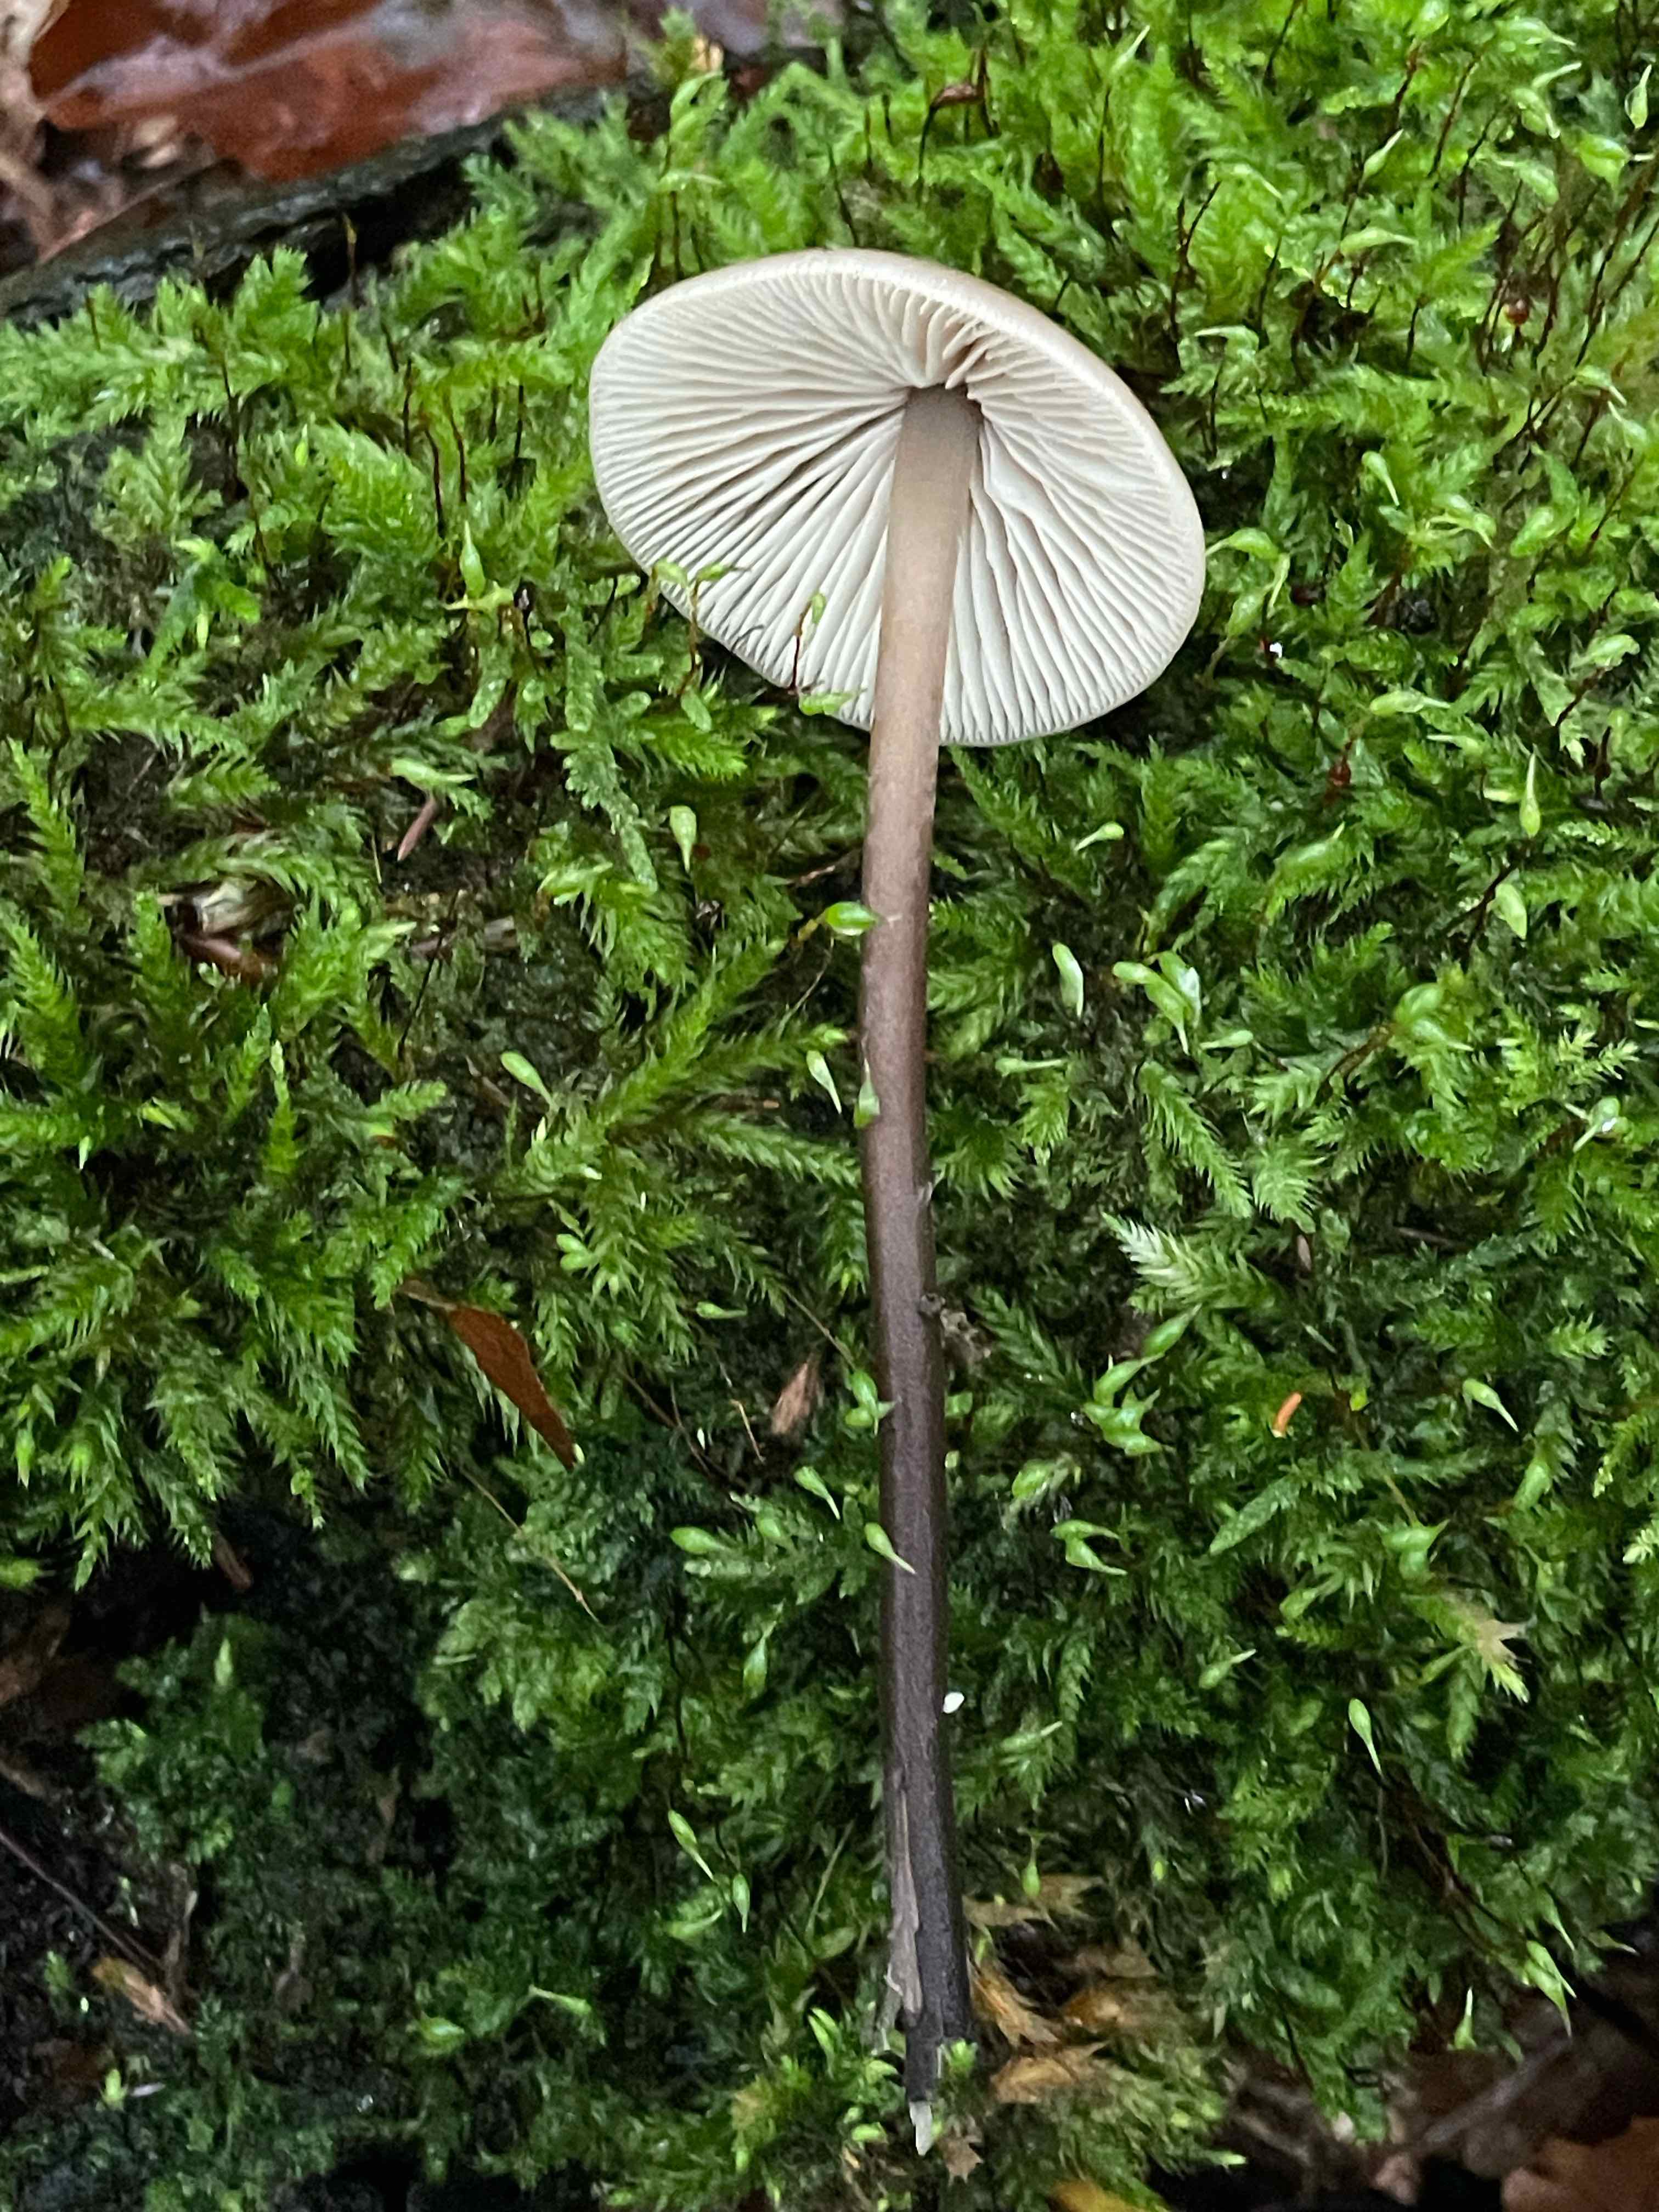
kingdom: Fungi
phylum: Basidiomycota
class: Agaricomycetes
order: Agaricales
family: Omphalotaceae
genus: Mycetinis
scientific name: Mycetinis alliaceus
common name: stor løghat
